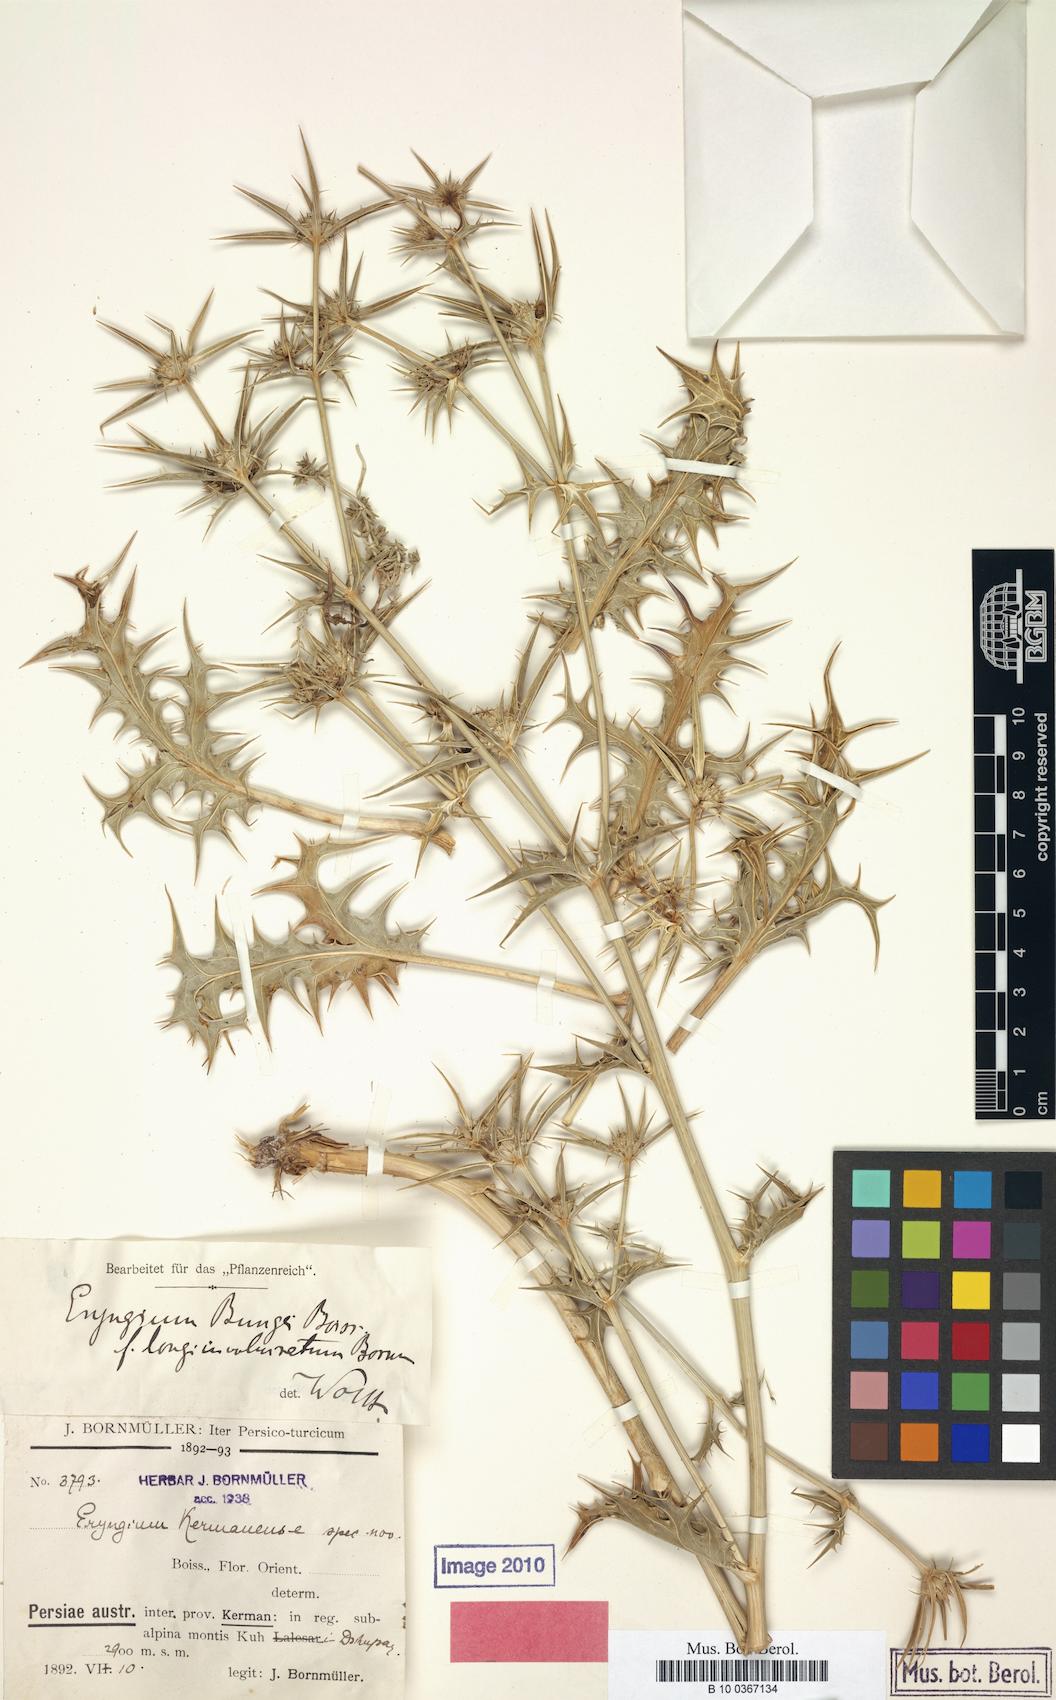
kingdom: Plantae
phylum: Tracheophyta
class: Magnoliopsida
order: Apiales
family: Apiaceae
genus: Eryngium
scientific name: Eryngium bungei
